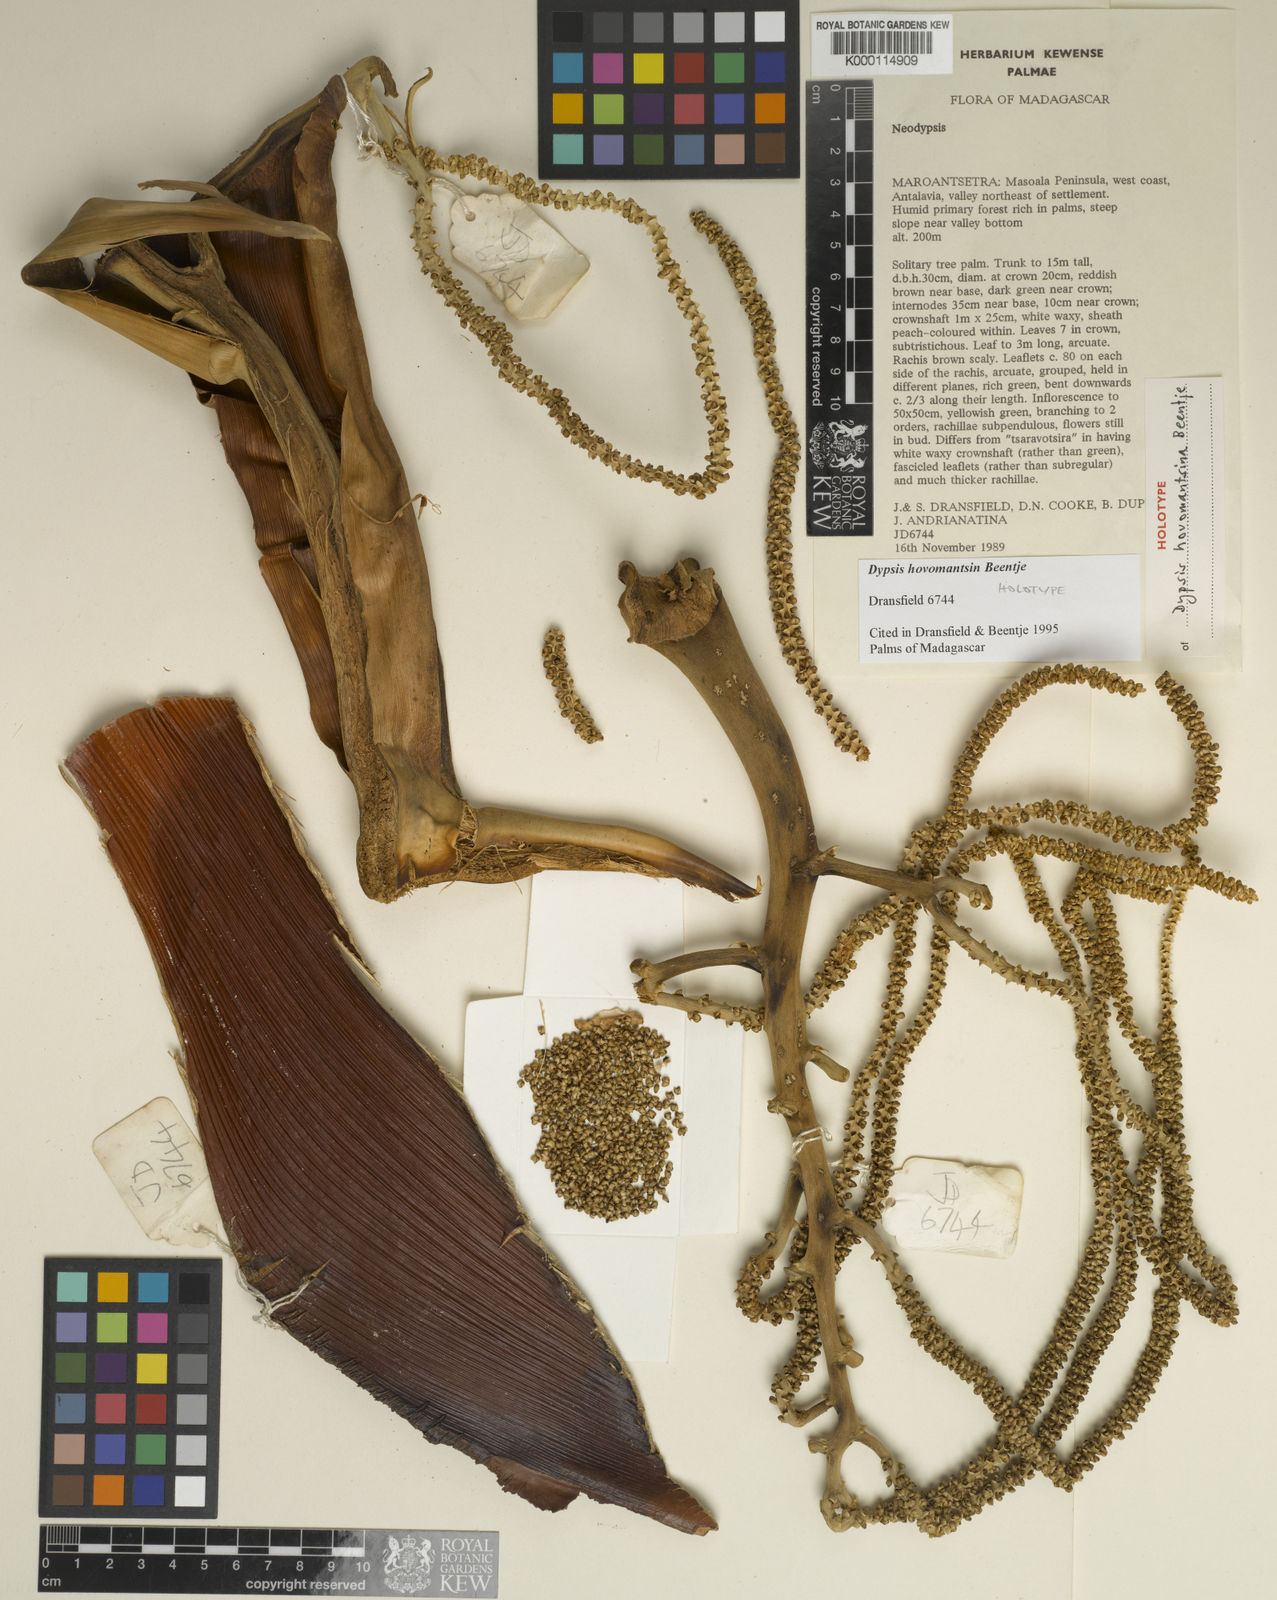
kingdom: Plantae
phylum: Tracheophyta
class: Liliopsida
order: Arecales
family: Arecaceae
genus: Dypsis
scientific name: Dypsis hovomantsina
